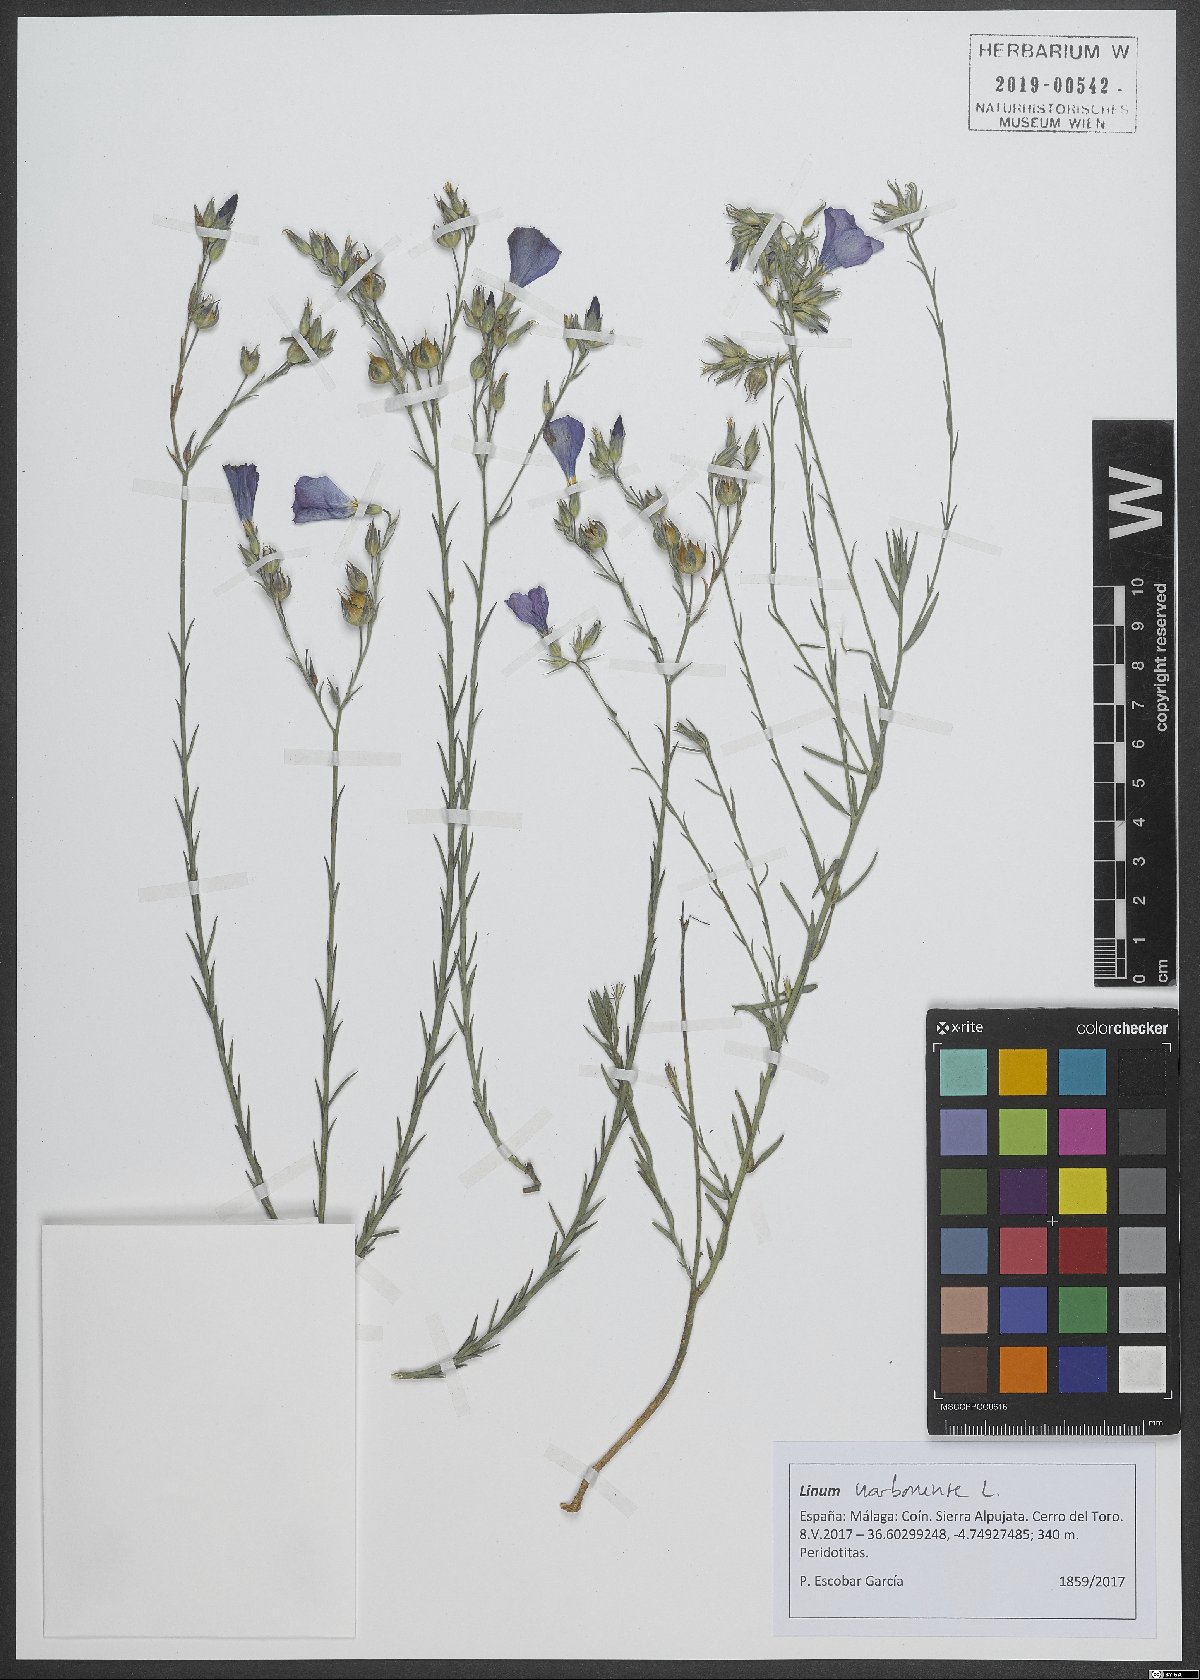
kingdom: Plantae
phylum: Tracheophyta
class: Magnoliopsida
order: Malpighiales
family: Linaceae
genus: Linum
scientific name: Linum narbonense
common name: Flax
